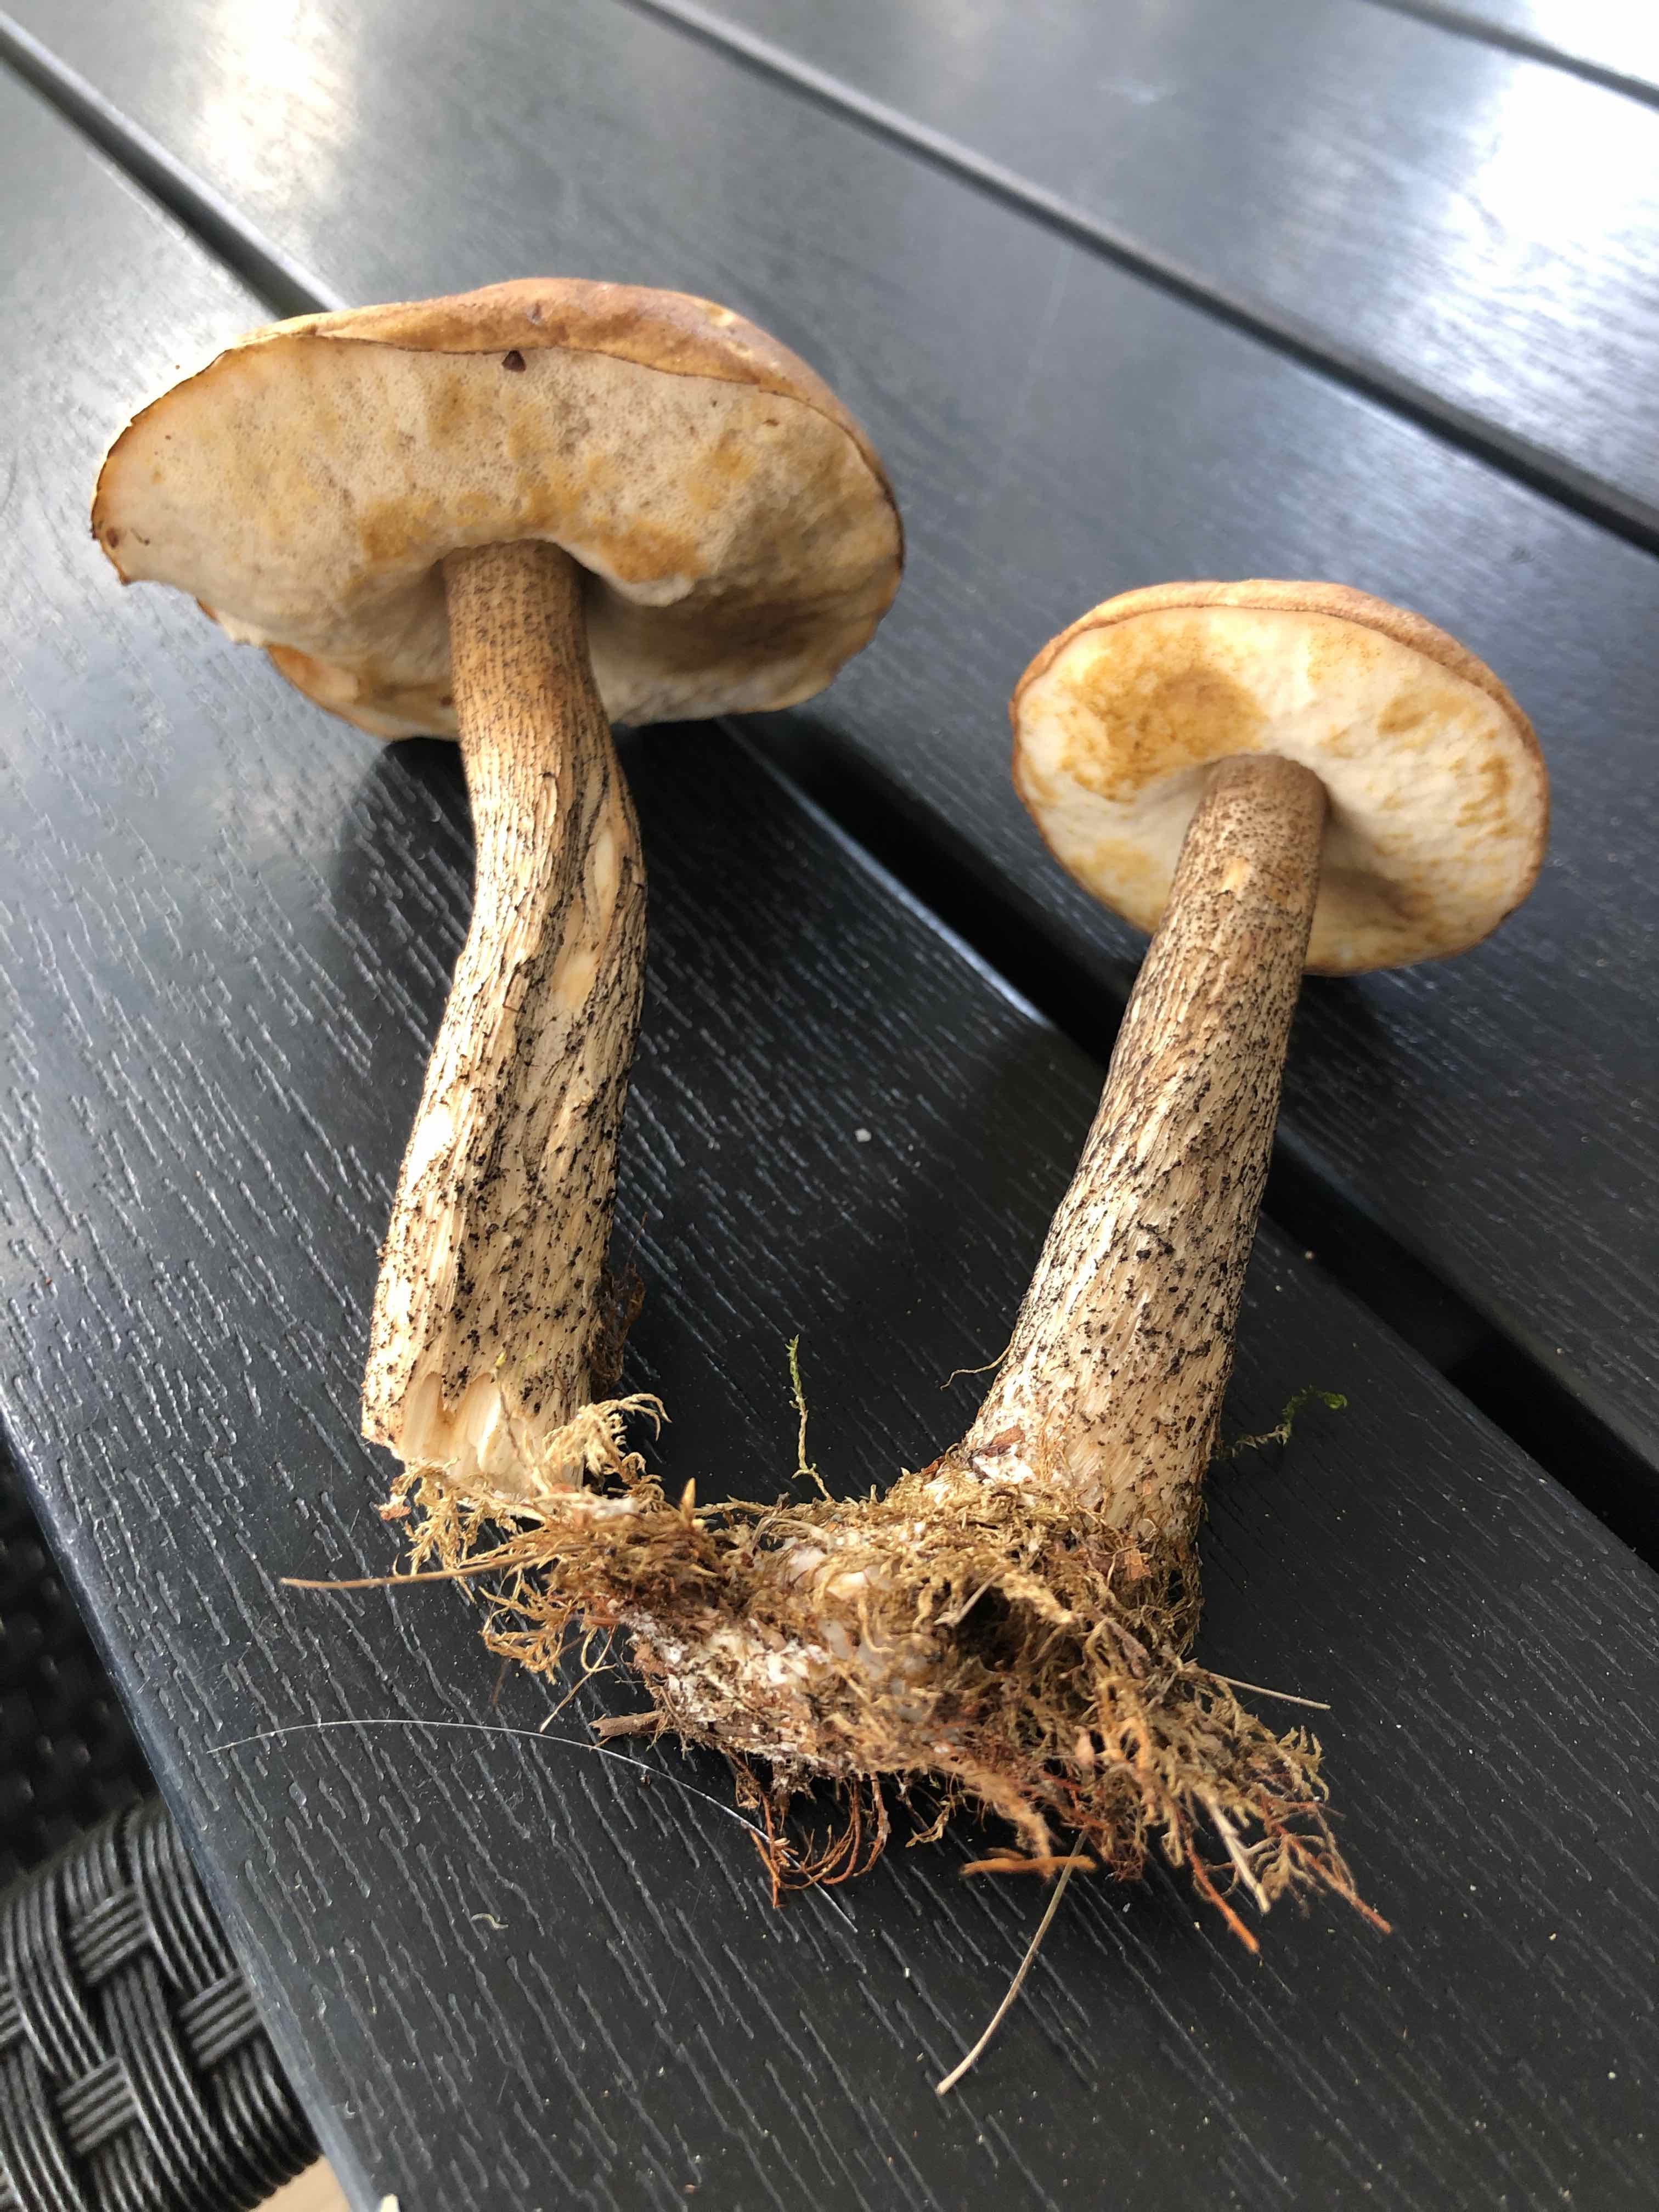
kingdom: Fungi
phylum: Basidiomycota
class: Agaricomycetes
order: Boletales
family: Boletaceae
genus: Leccinum
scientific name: Leccinum scabrum
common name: brun skælrørhat
